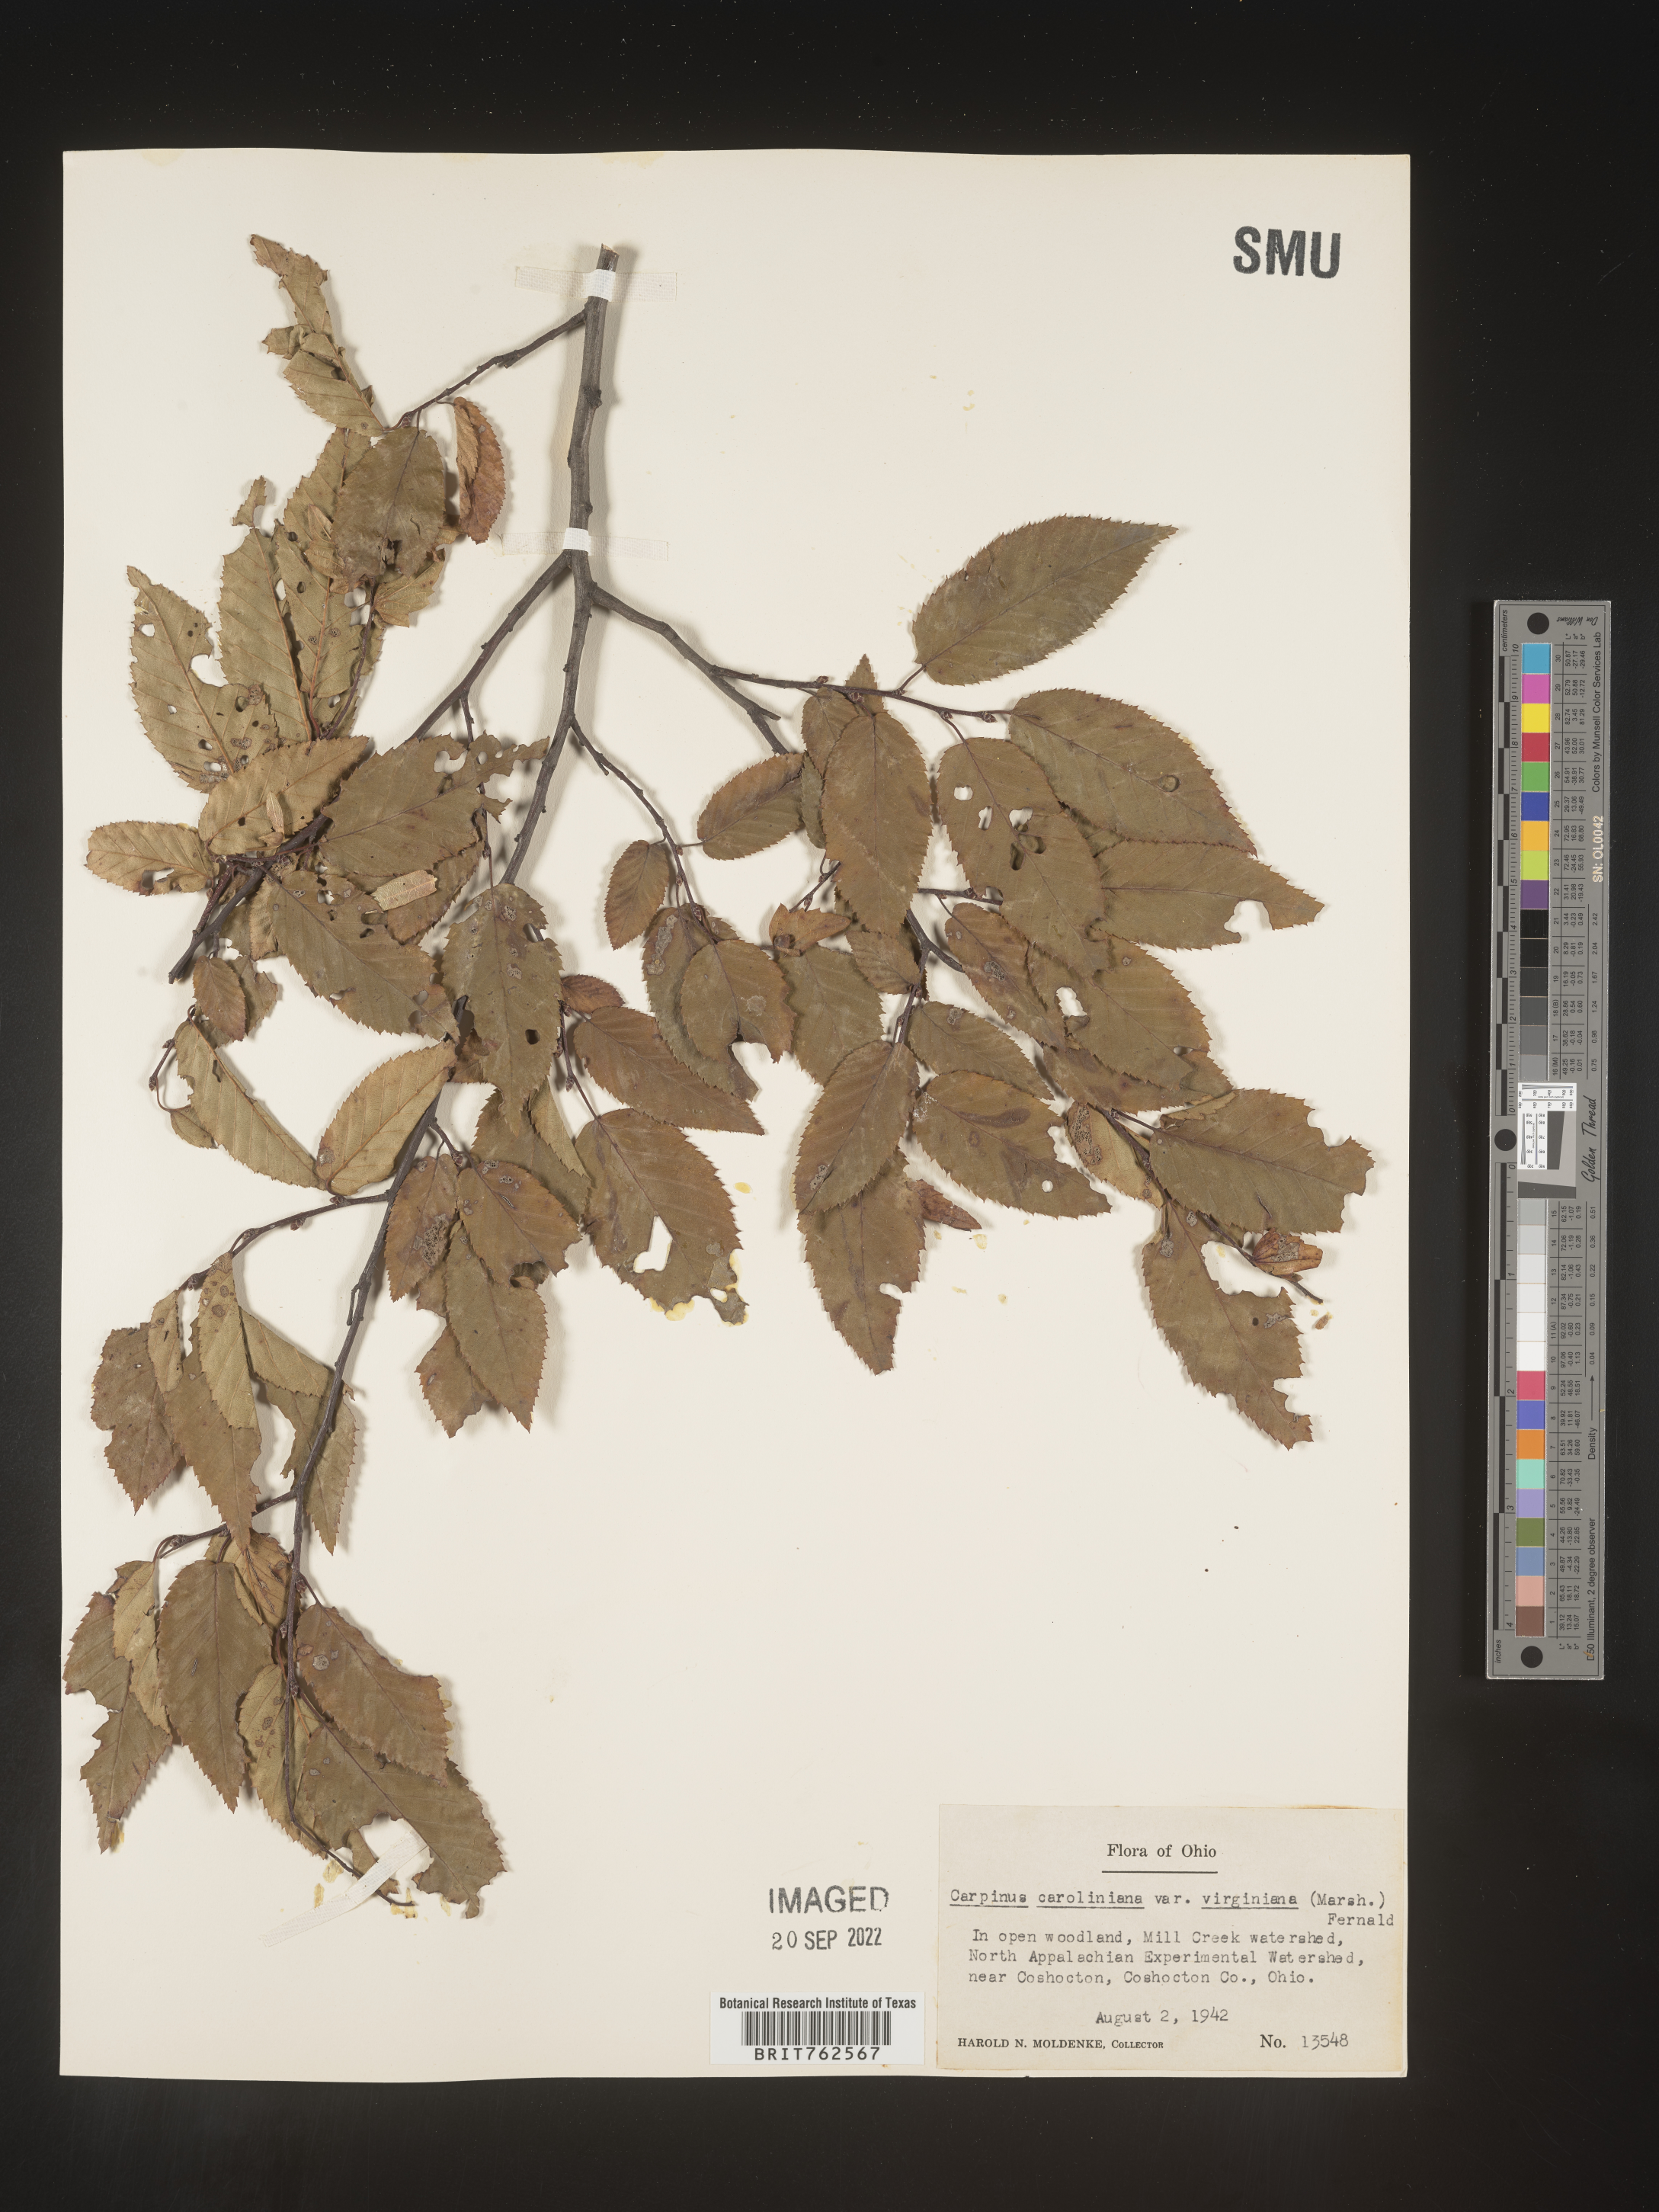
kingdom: Plantae
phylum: Tracheophyta
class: Magnoliopsida
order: Fagales
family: Betulaceae
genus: Carpinus
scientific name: Carpinus caroliniana
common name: American hornbeam
